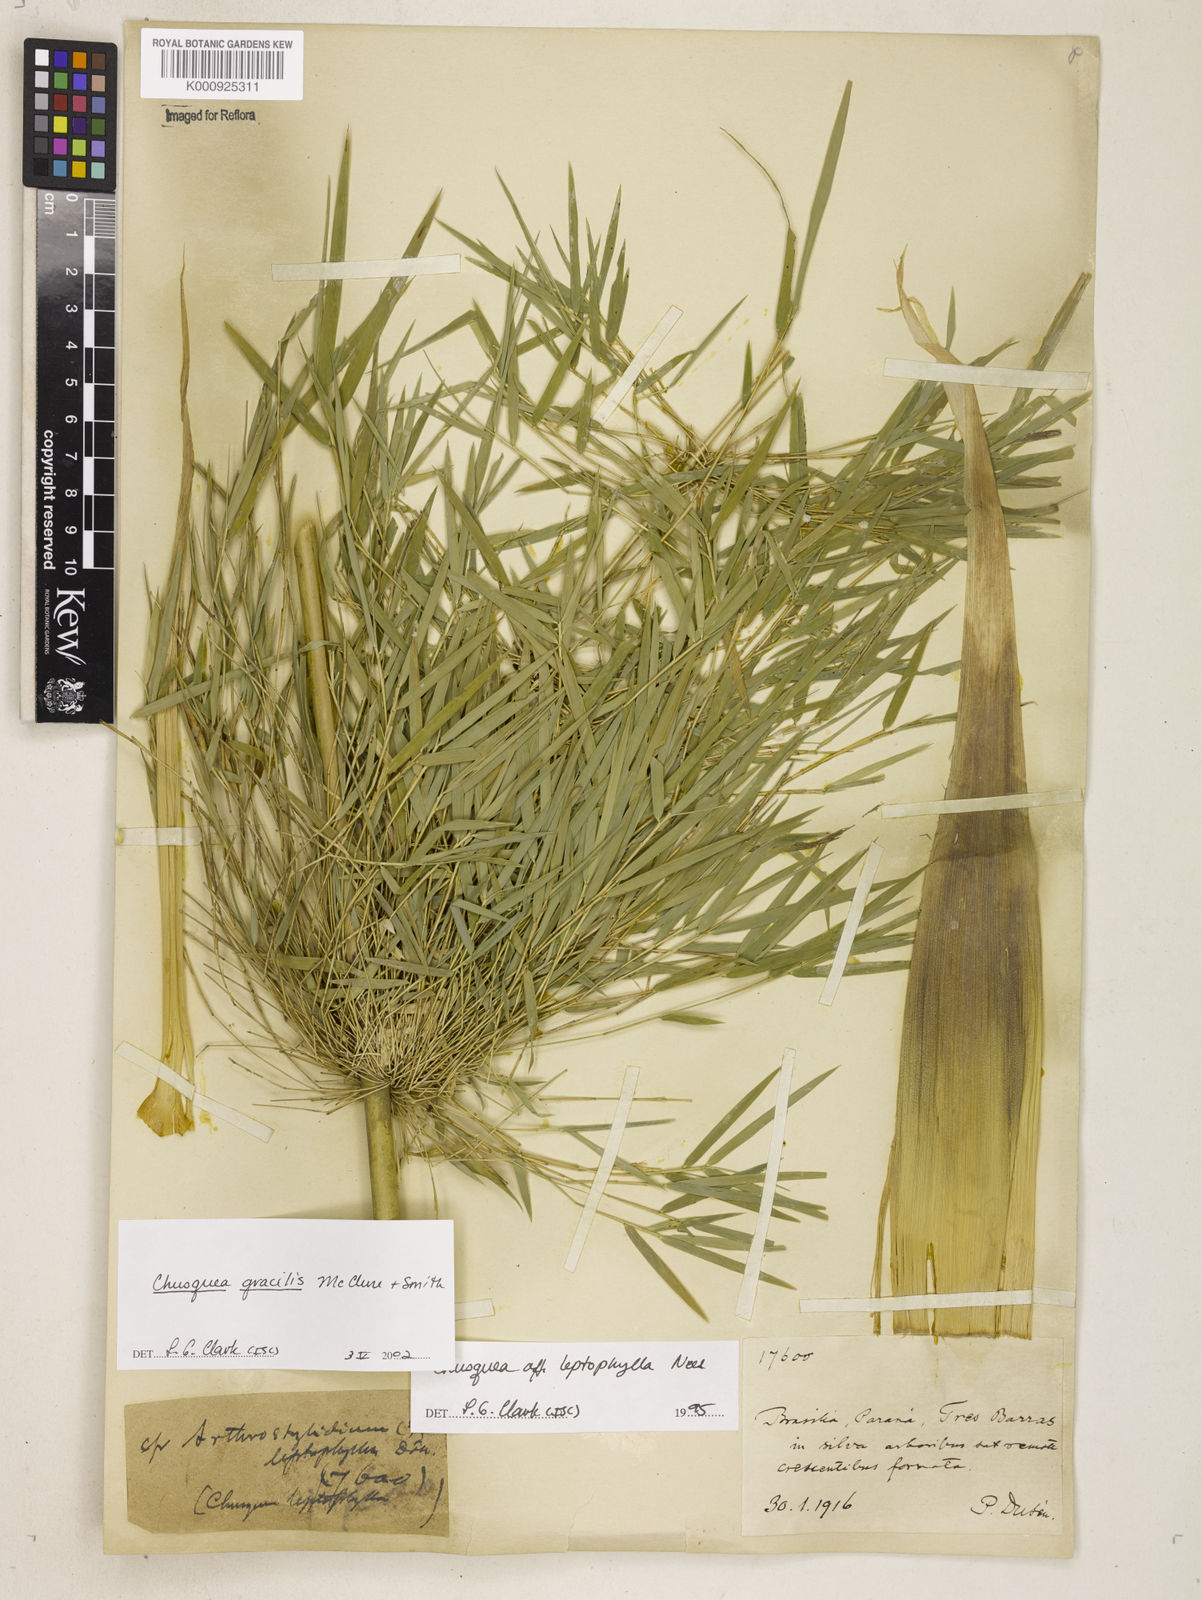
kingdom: Plantae
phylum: Tracheophyta
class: Liliopsida
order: Poales
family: Poaceae
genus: Chusquea
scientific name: Chusquea gracilis
